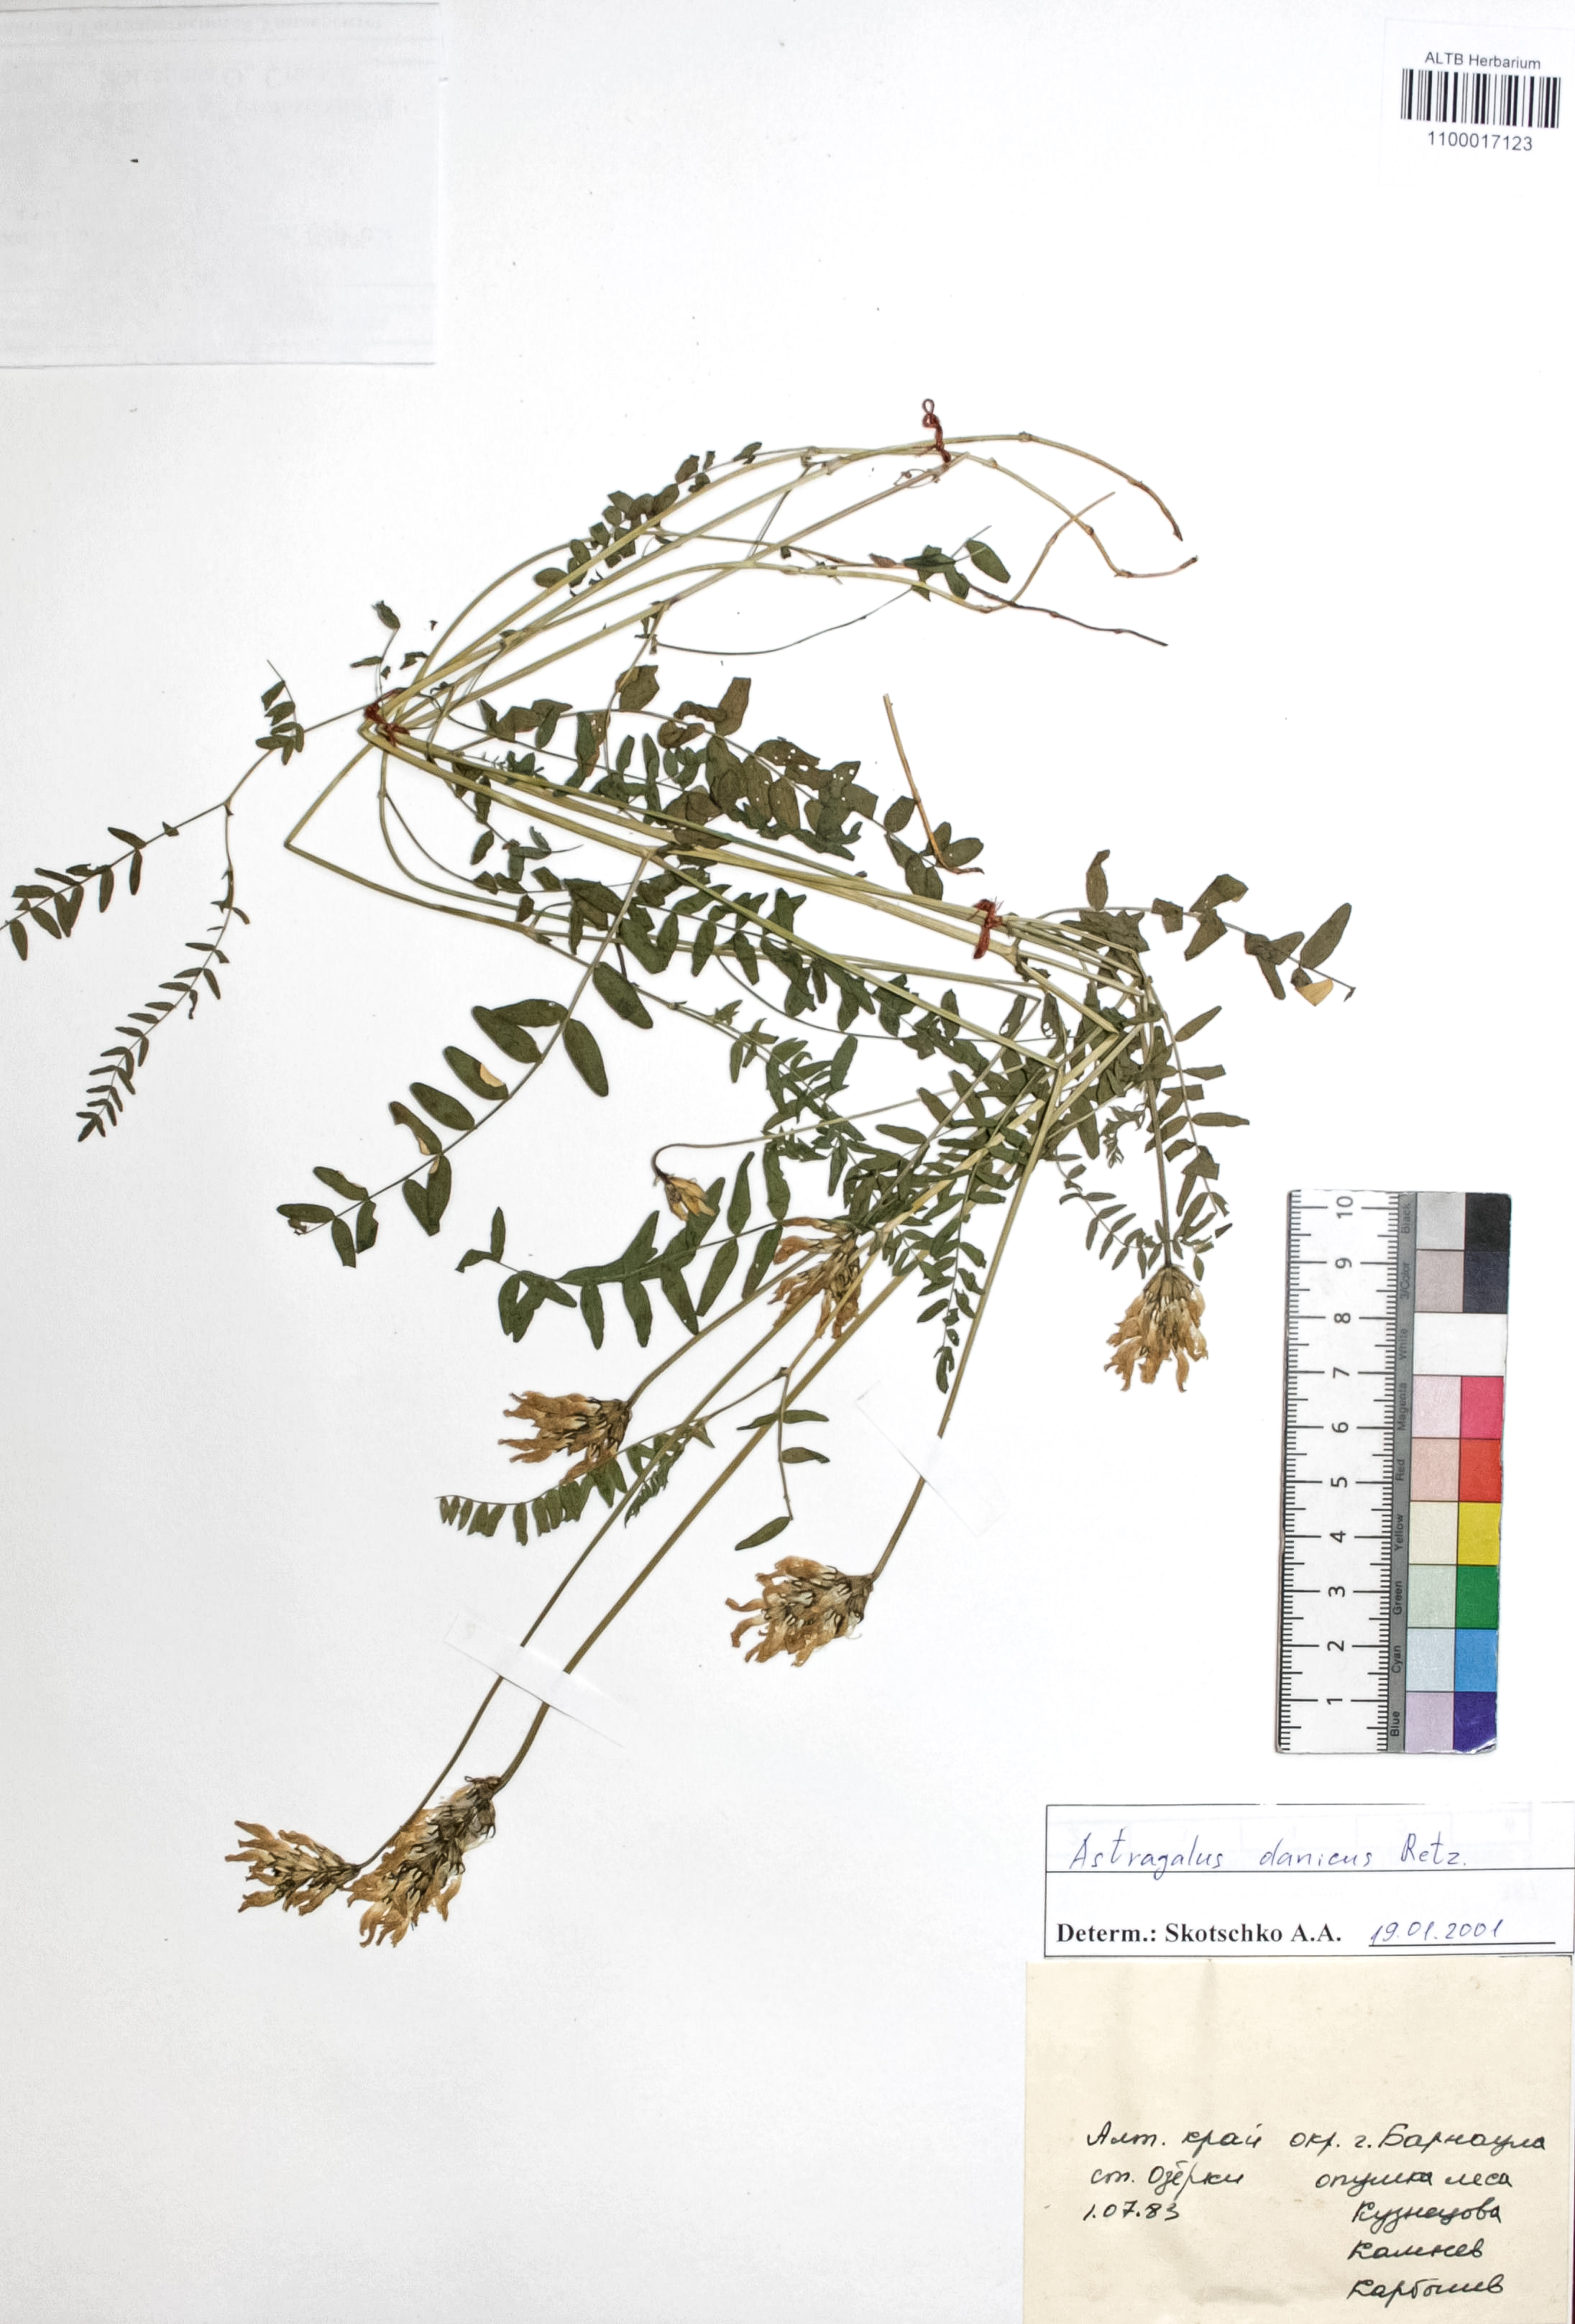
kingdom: Plantae
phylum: Tracheophyta
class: Magnoliopsida
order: Fabales
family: Fabaceae
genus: Astragalus
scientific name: Astragalus danicus
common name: Purple milk-vetch
